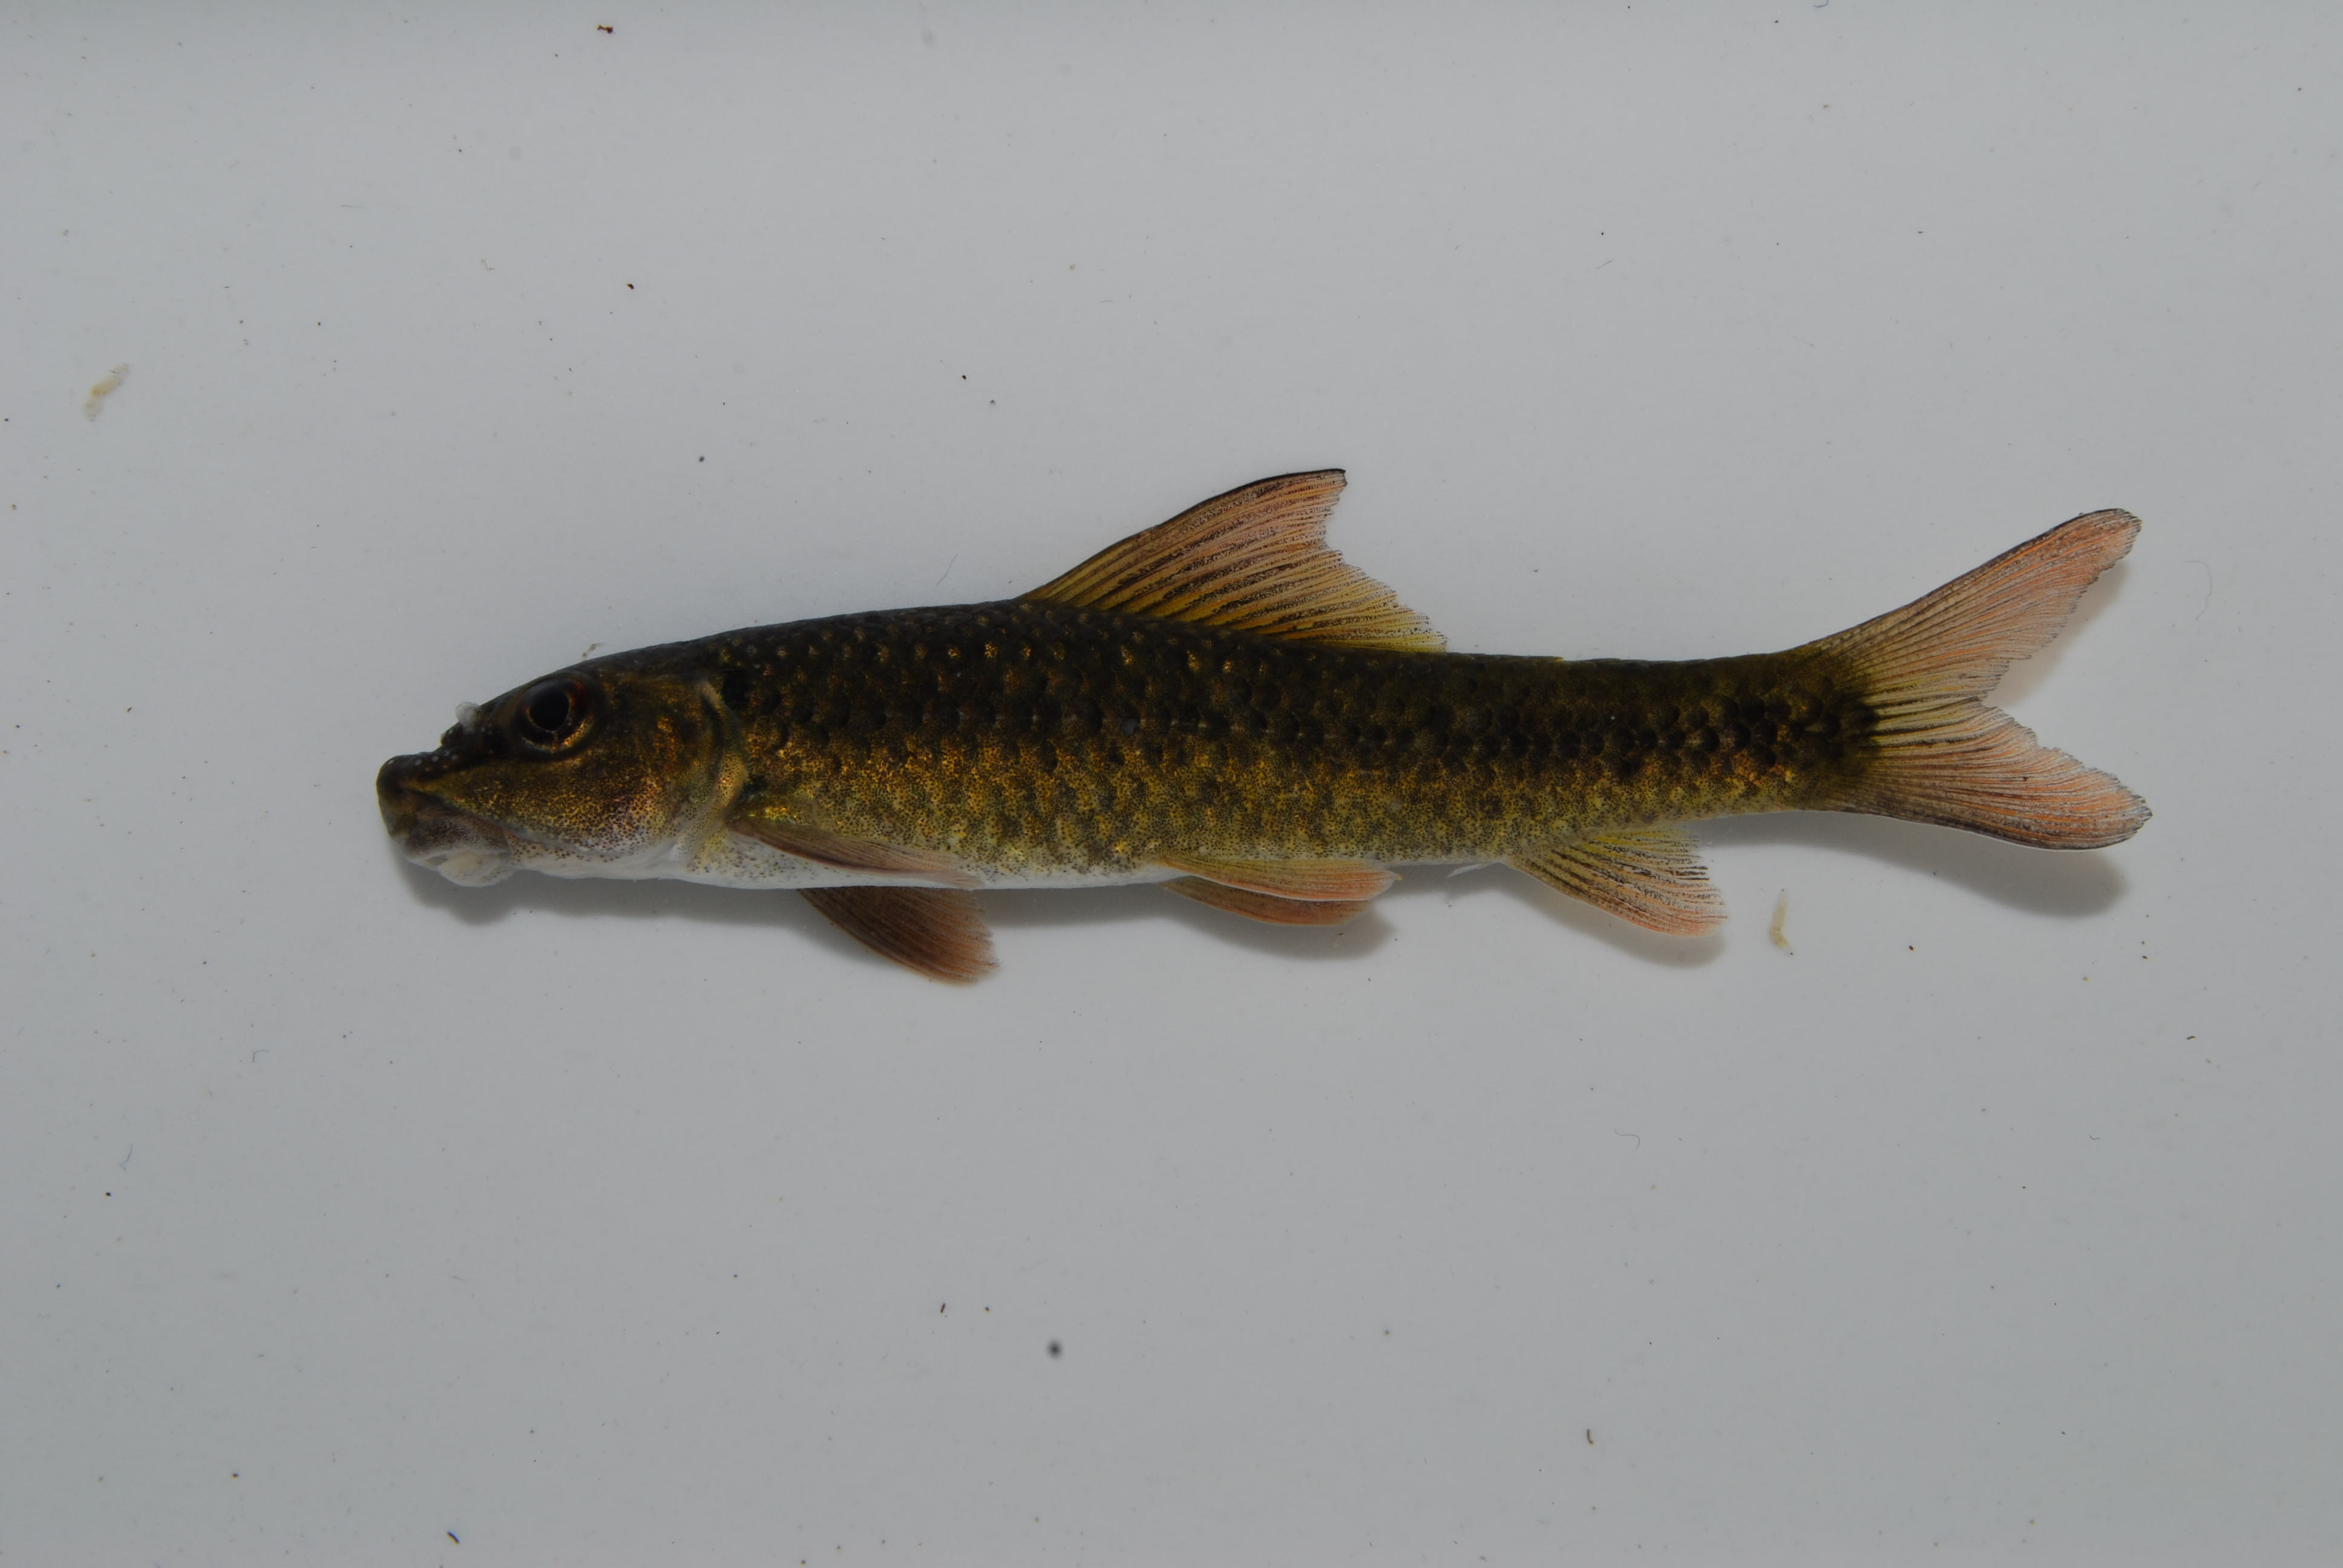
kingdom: Animalia
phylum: Chordata
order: Cypriniformes
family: Cyprinidae
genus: Labeo
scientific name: Labeo cylindricus
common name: Redeye labeo
